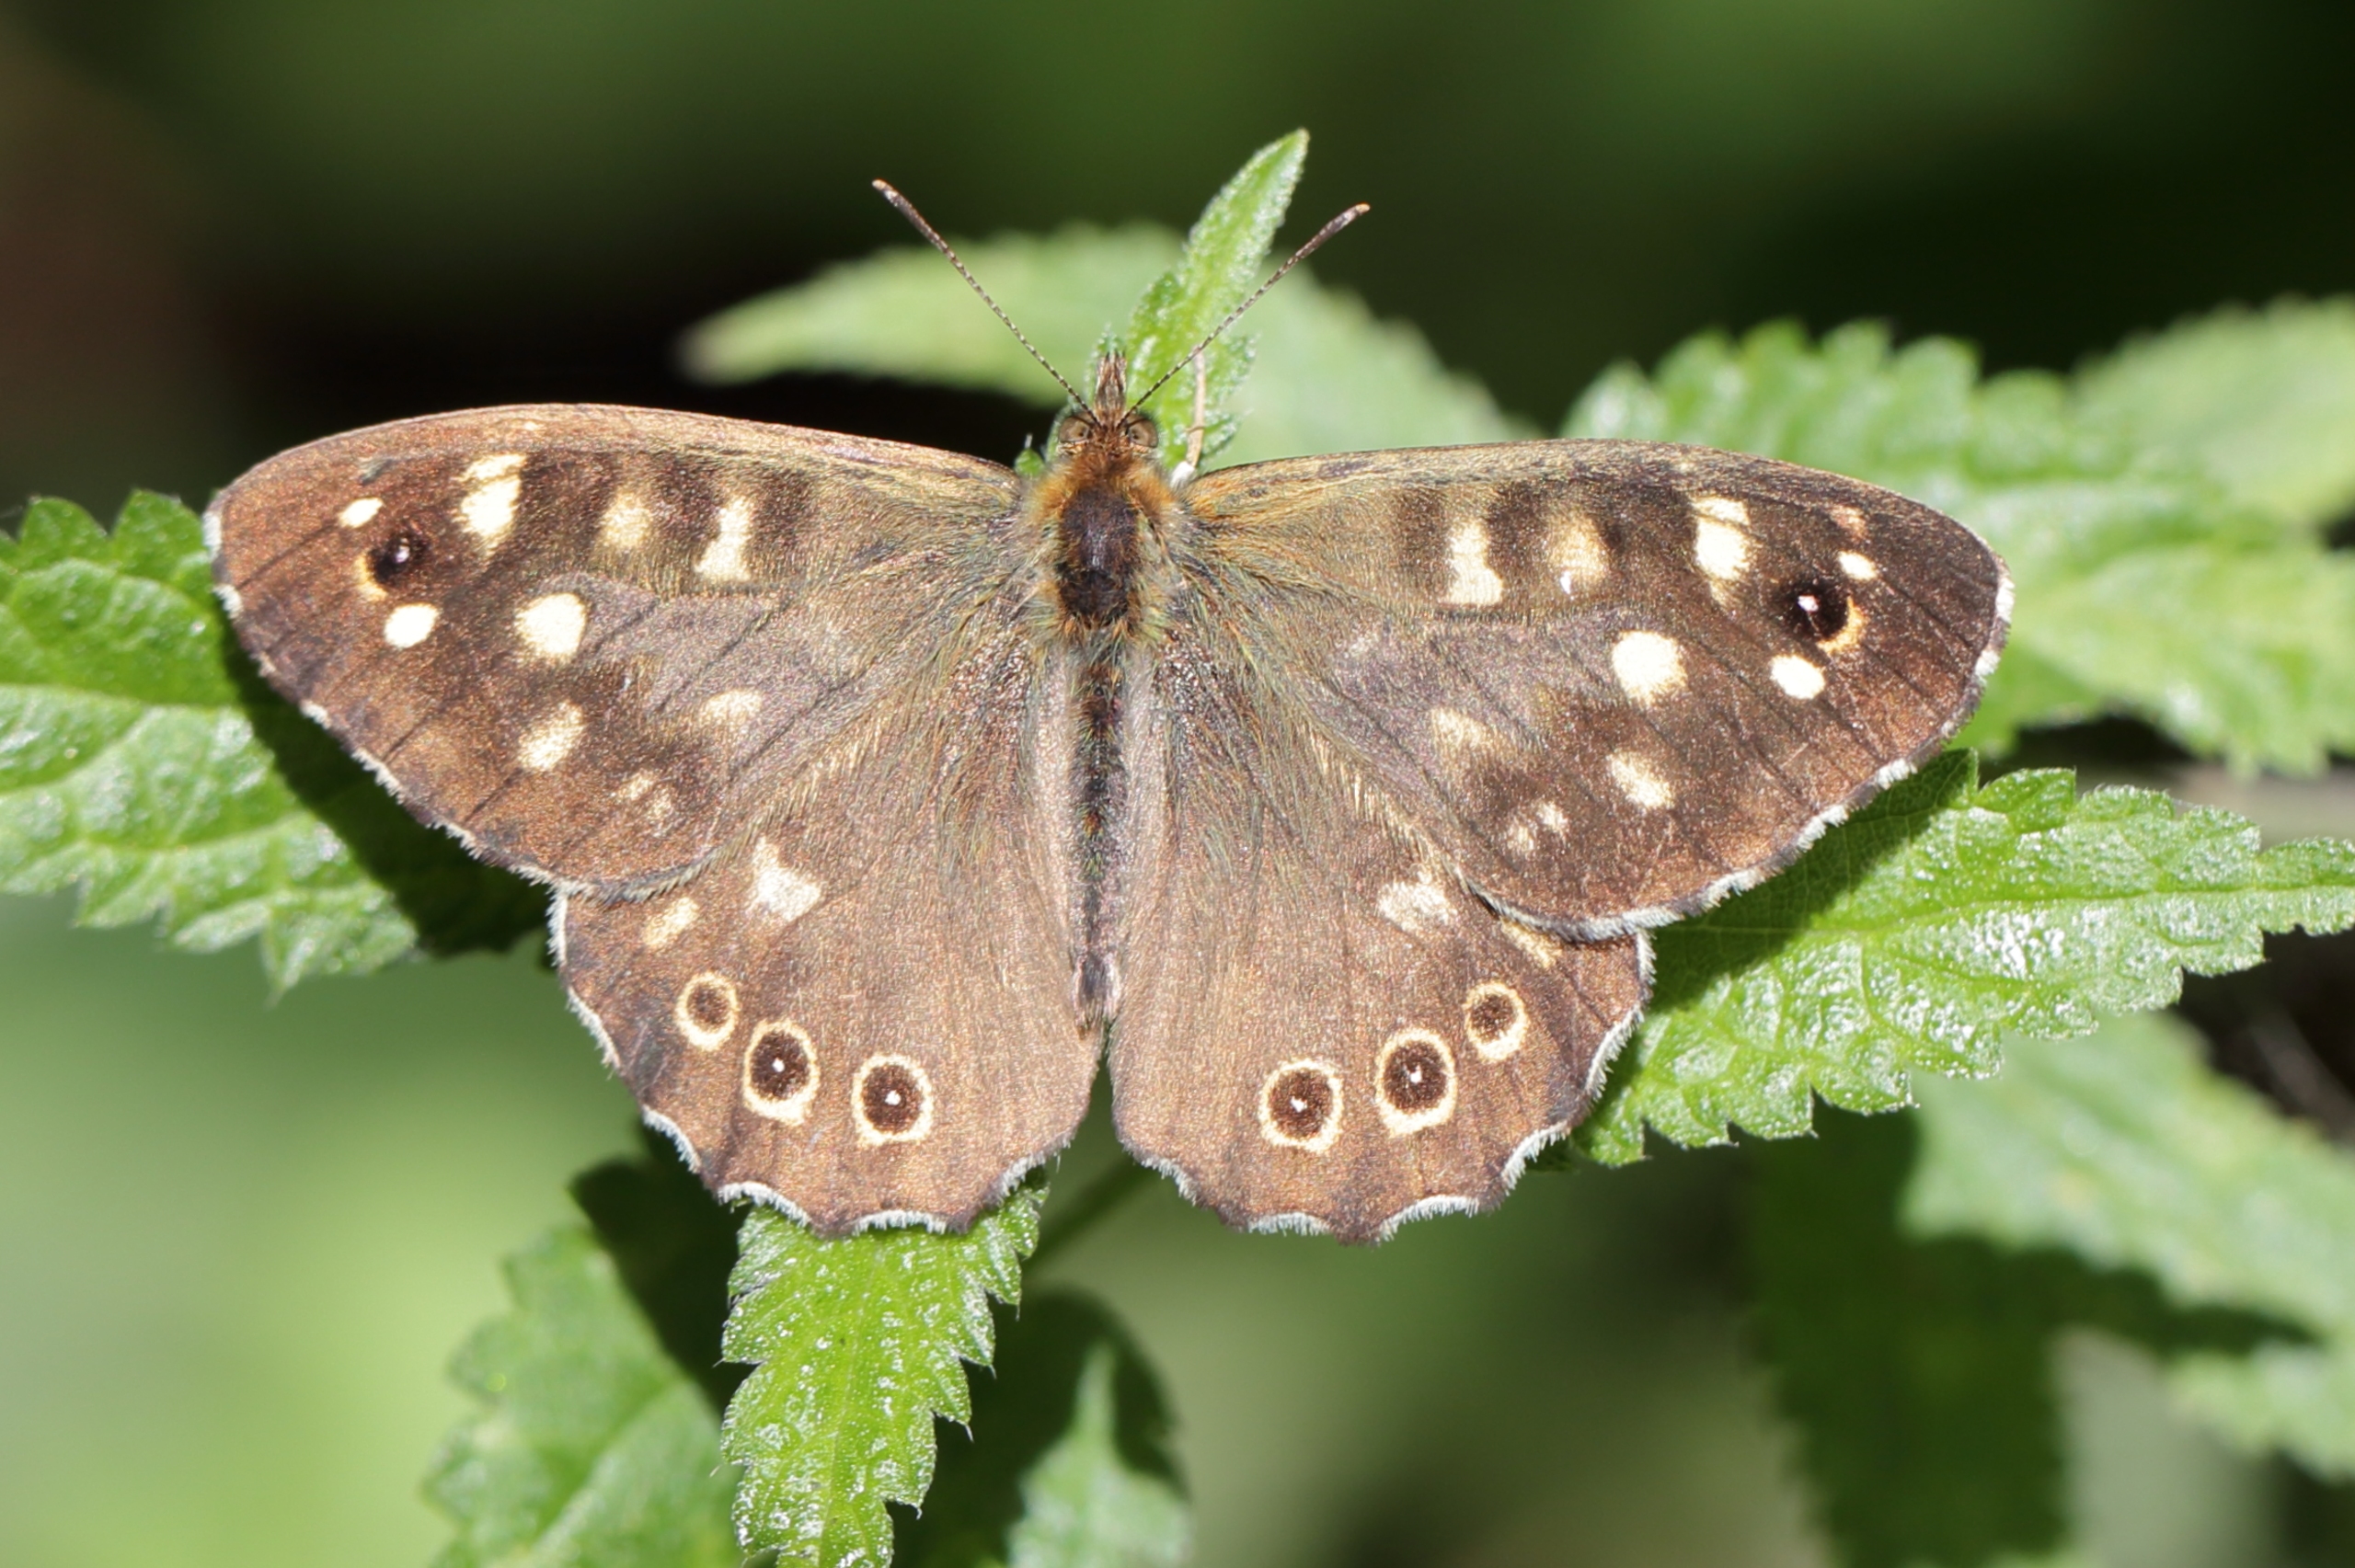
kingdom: Animalia
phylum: Arthropoda
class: Insecta
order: Lepidoptera
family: Nymphalidae
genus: Pararge
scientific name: Pararge aegeria
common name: Skovrandøje
